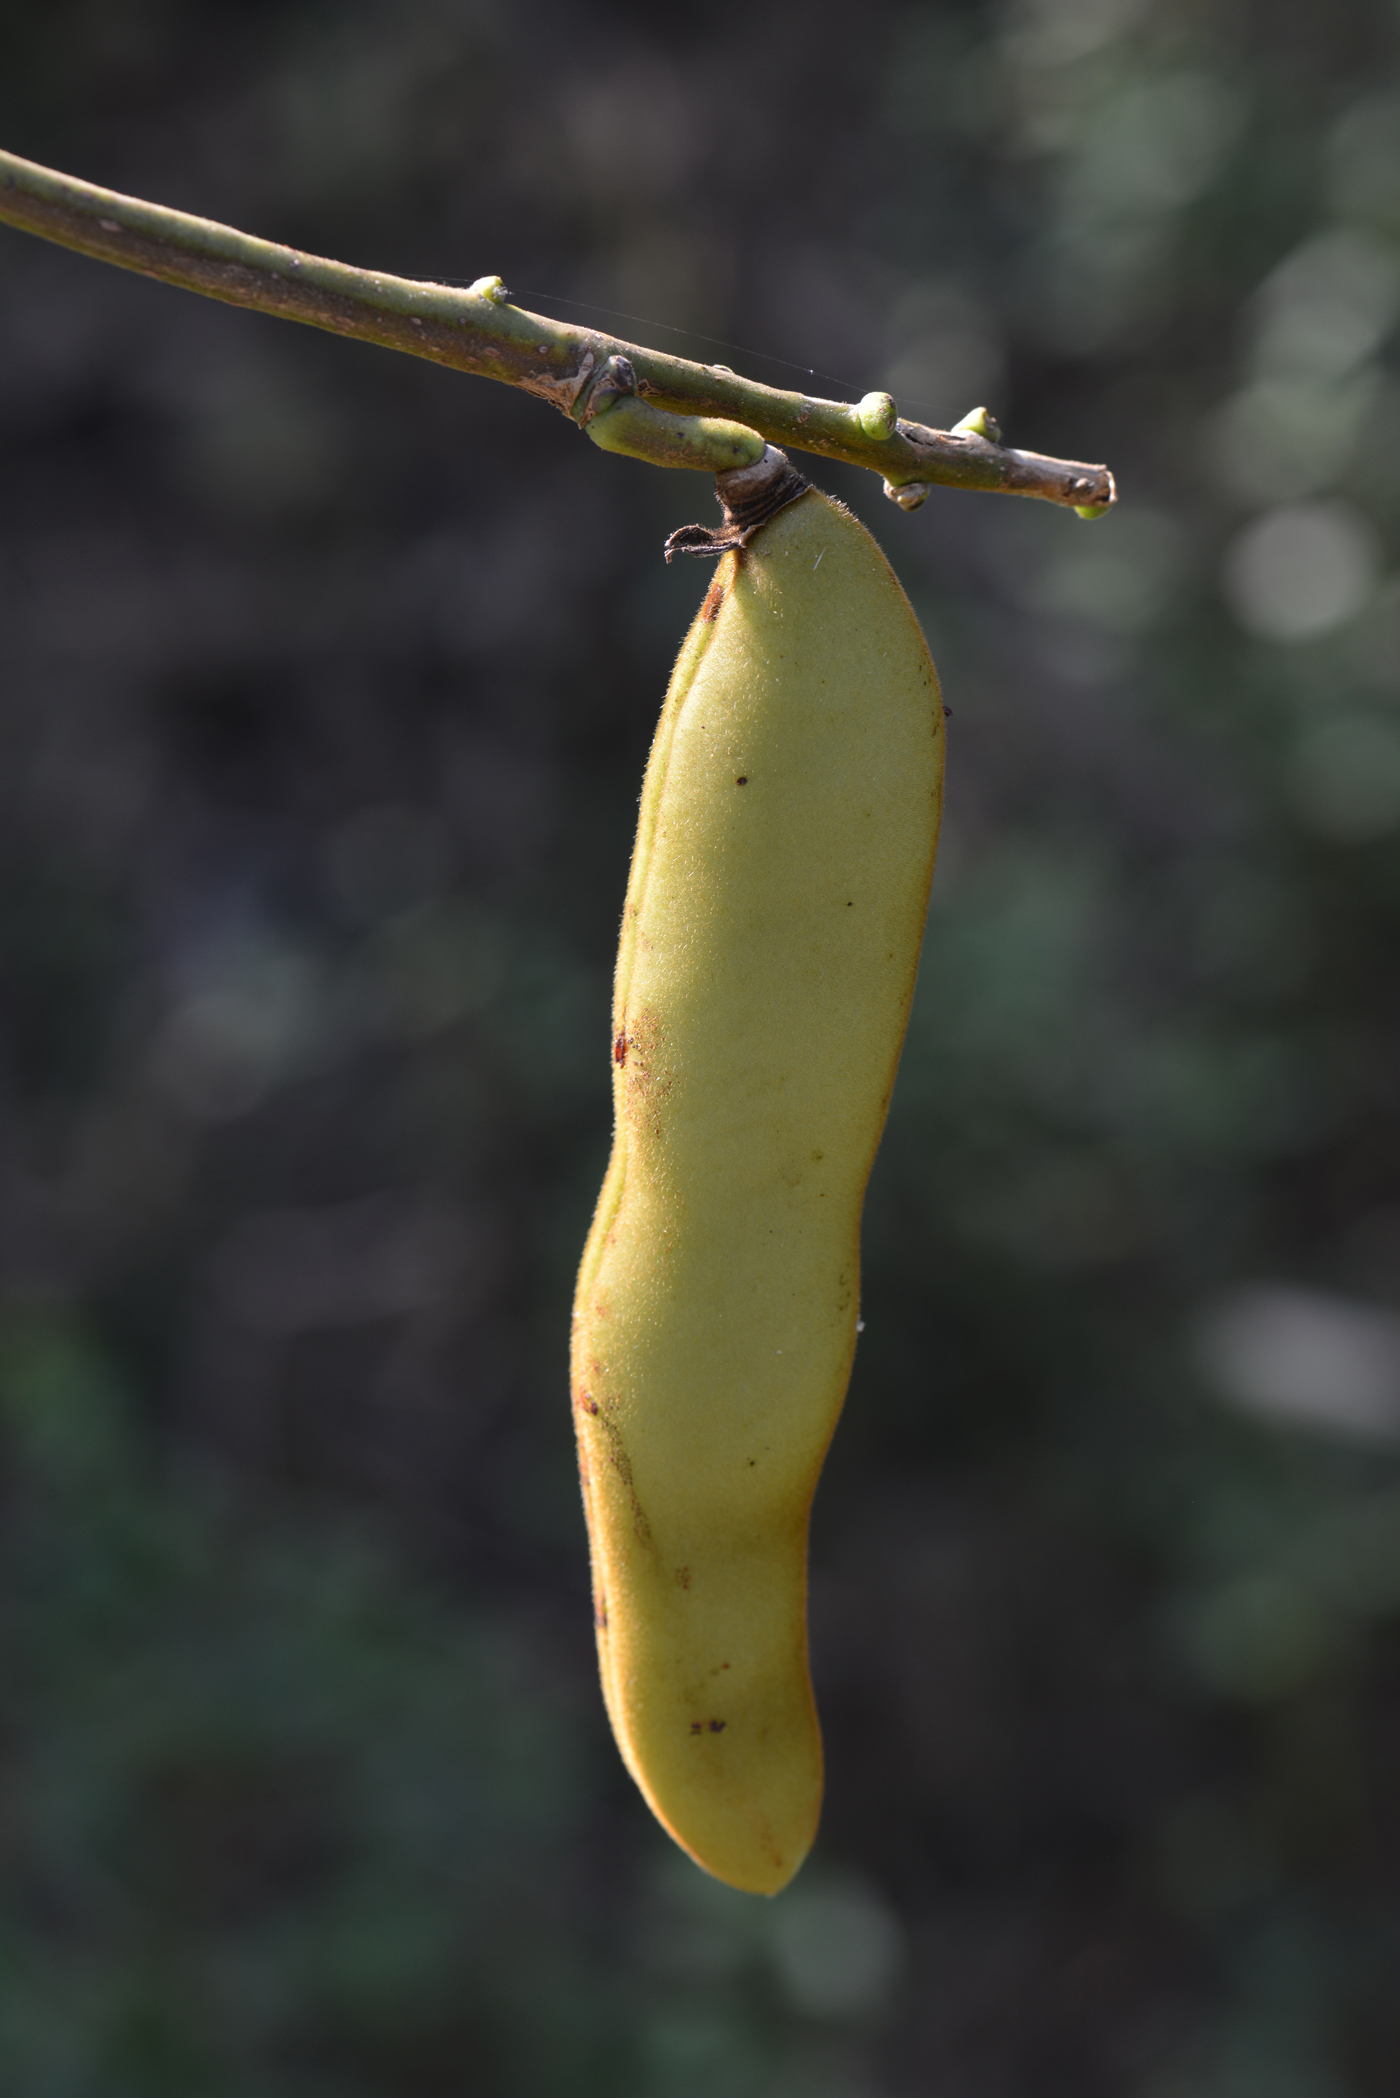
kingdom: Plantae
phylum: Tracheophyta
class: Magnoliopsida
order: Fabales
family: Fabaceae
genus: Dysolobium
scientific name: Dysolobium grande
